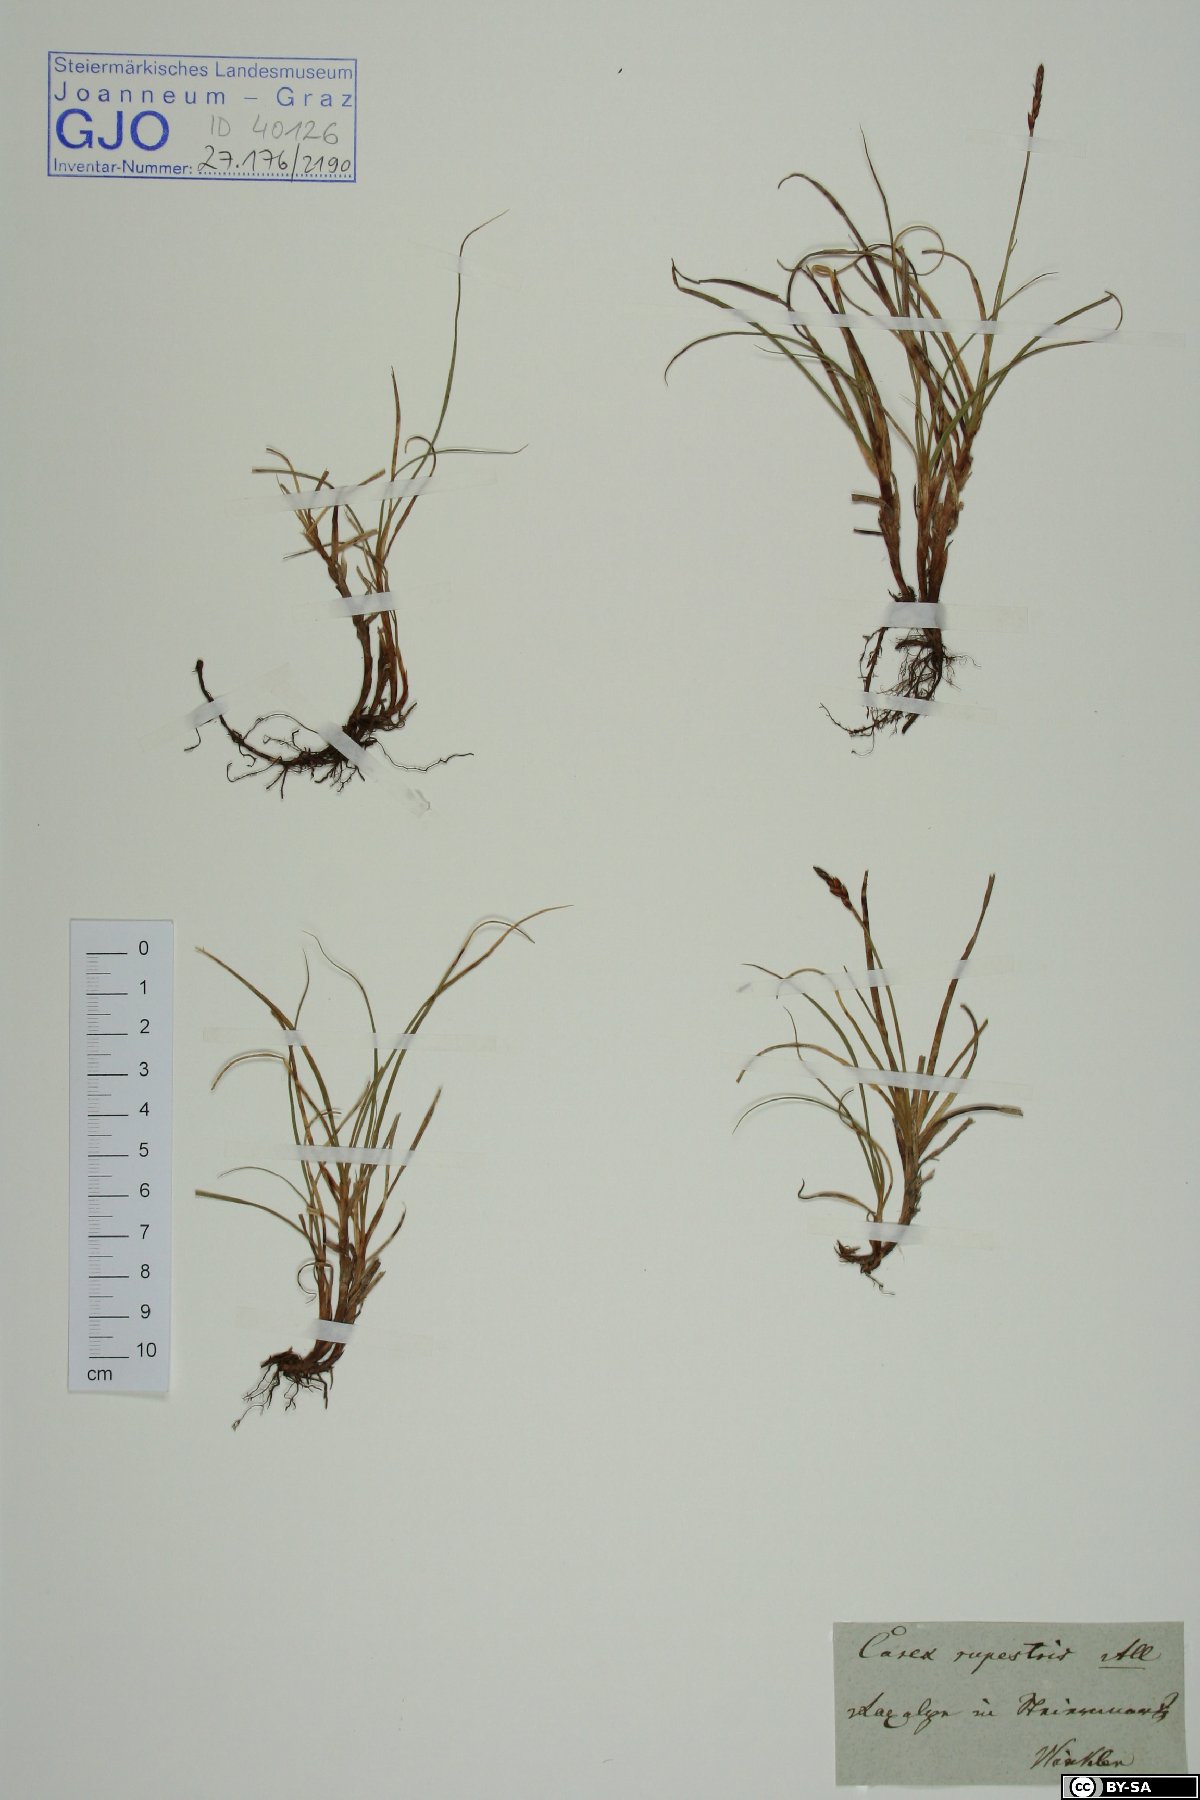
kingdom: Plantae
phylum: Tracheophyta
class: Liliopsida
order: Poales
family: Cyperaceae
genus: Carex
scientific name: Carex rupestris
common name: Rock sedge
